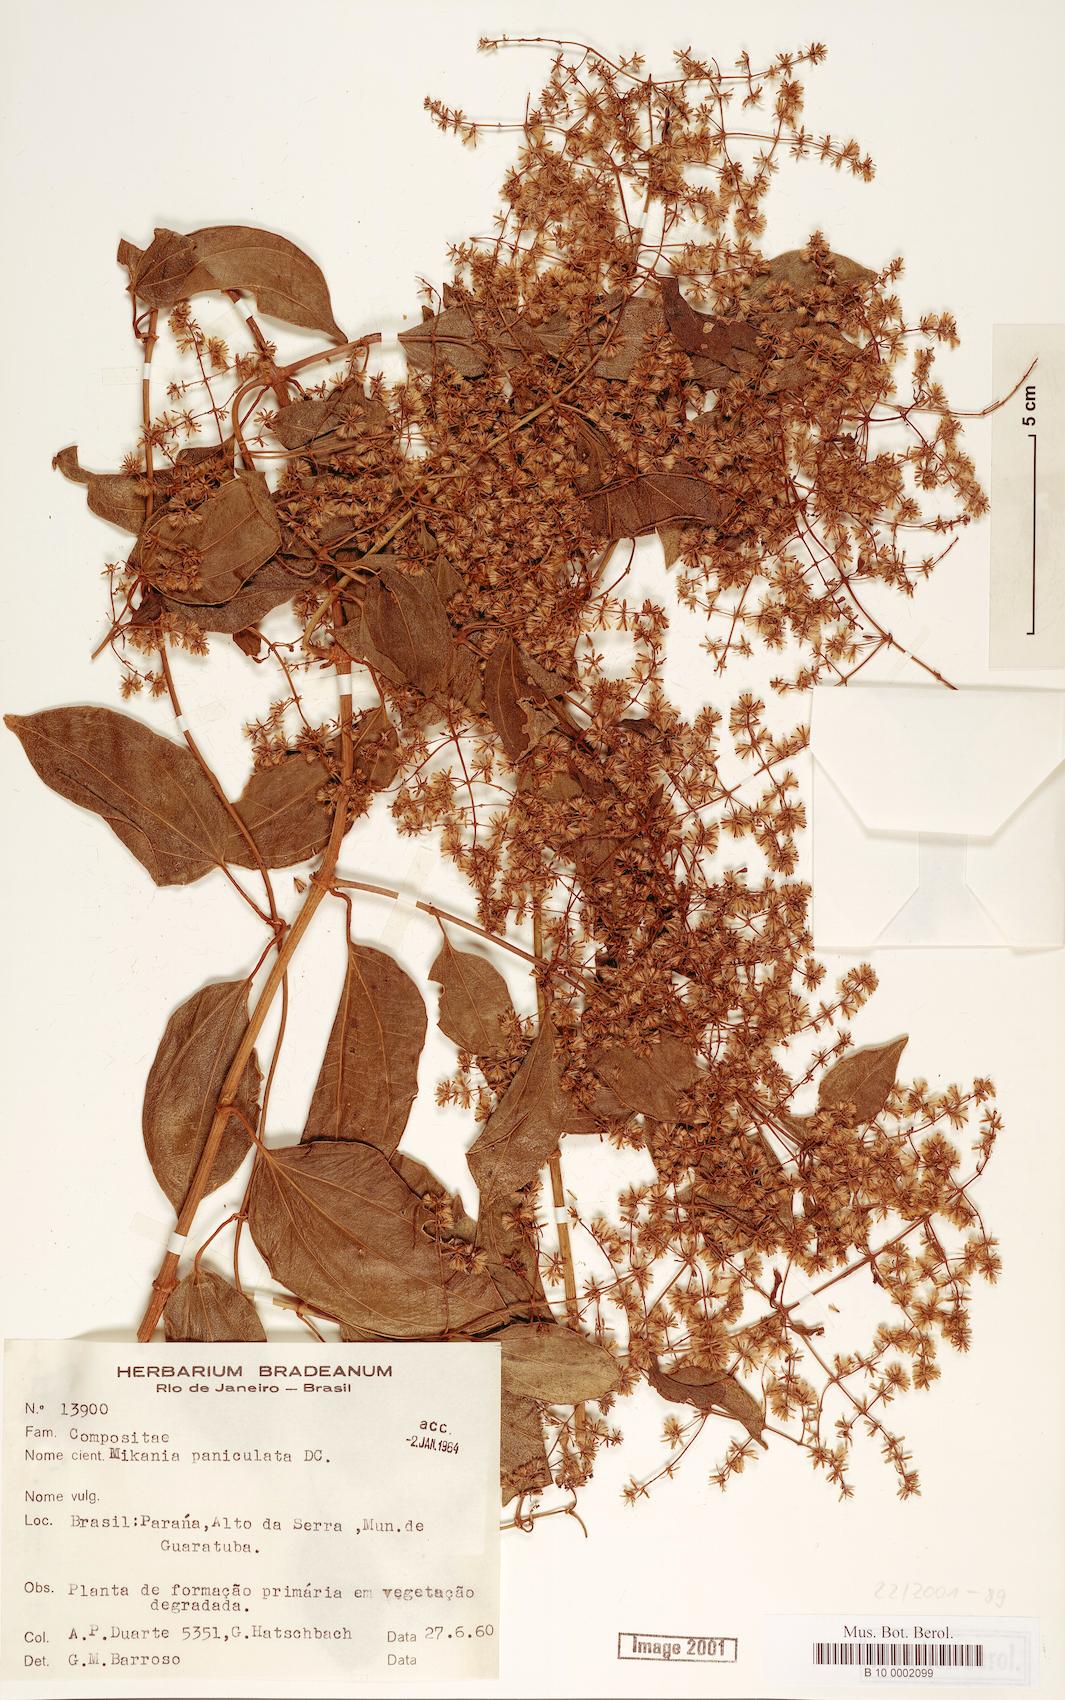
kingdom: Plantae
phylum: Tracheophyta
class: Magnoliopsida
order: Asterales
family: Asteraceae
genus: Mikania
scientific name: Mikania paniculata
